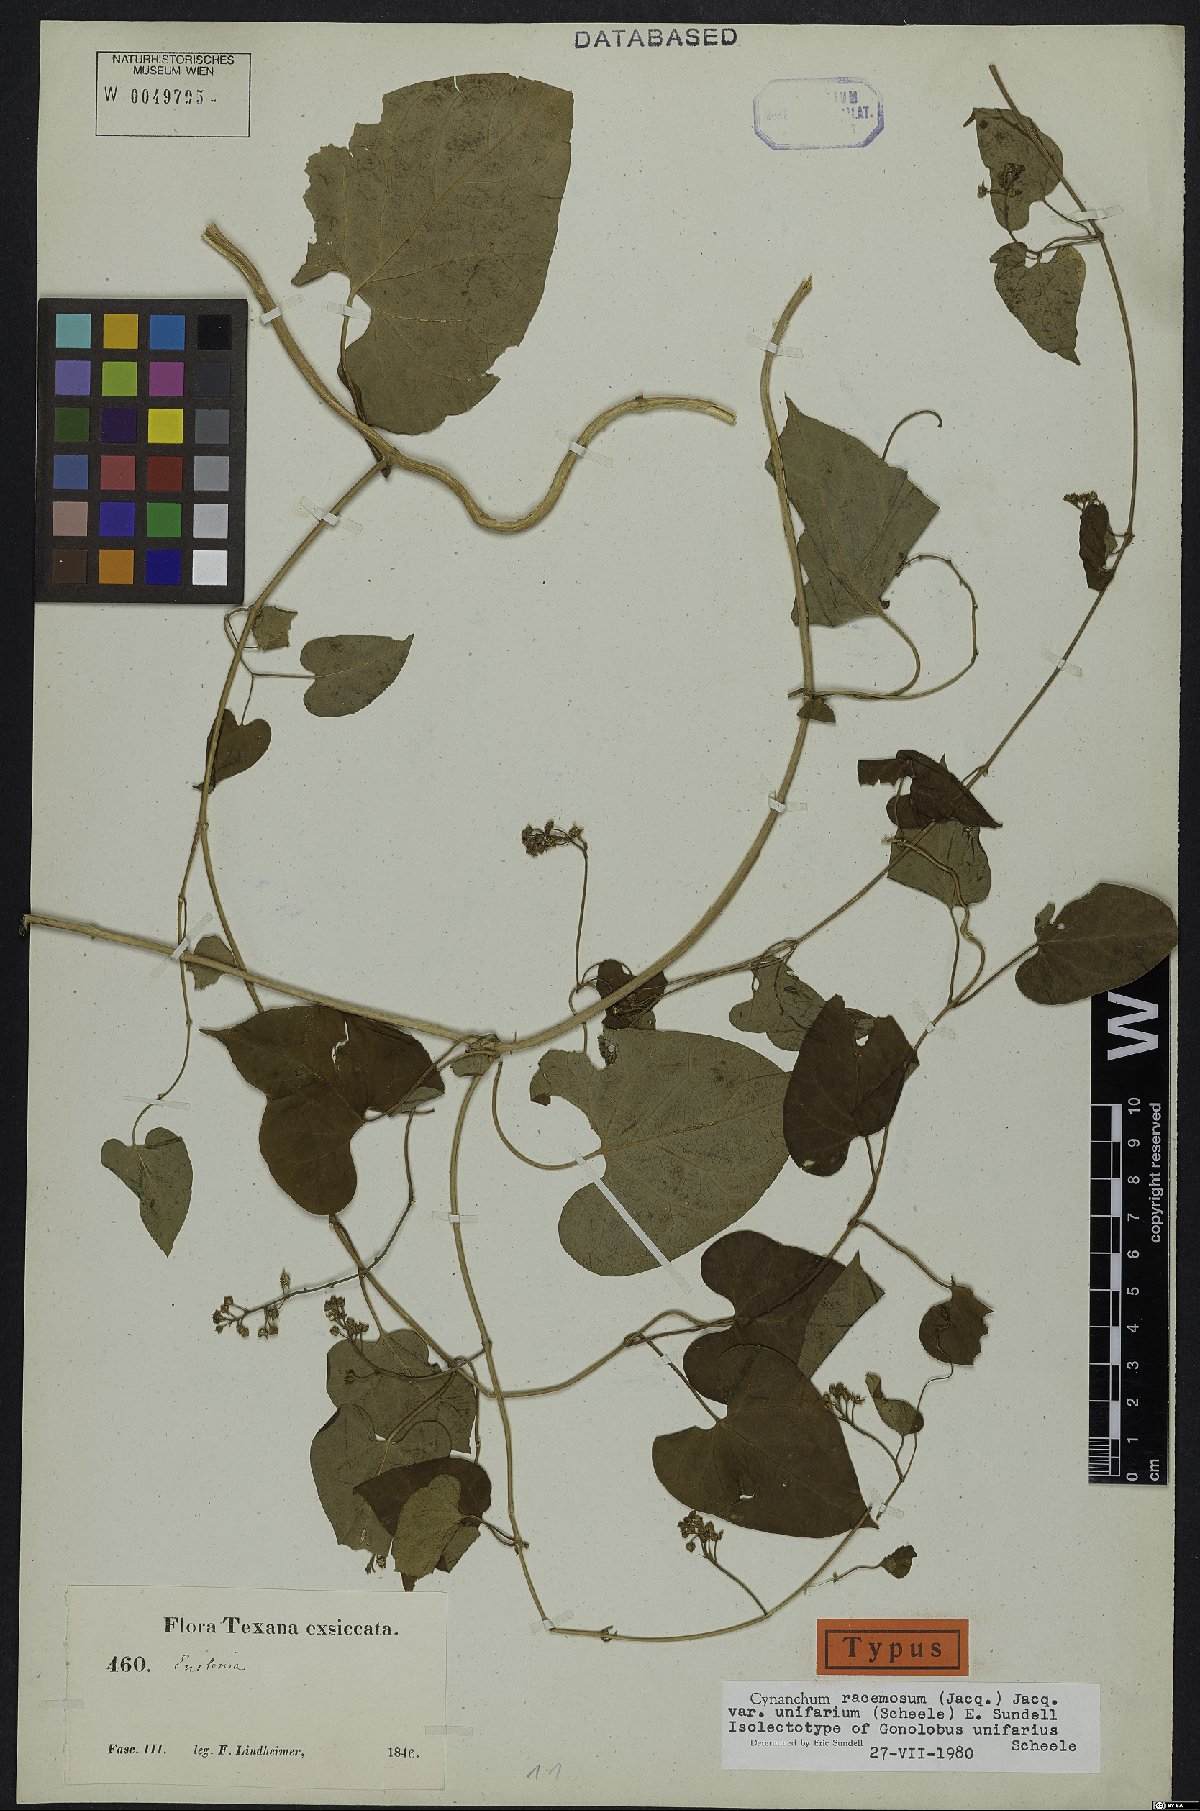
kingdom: Plantae
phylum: Tracheophyta
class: Magnoliopsida
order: Gentianales
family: Apocynaceae
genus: Cynanchum
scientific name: Cynanchum racemosum
